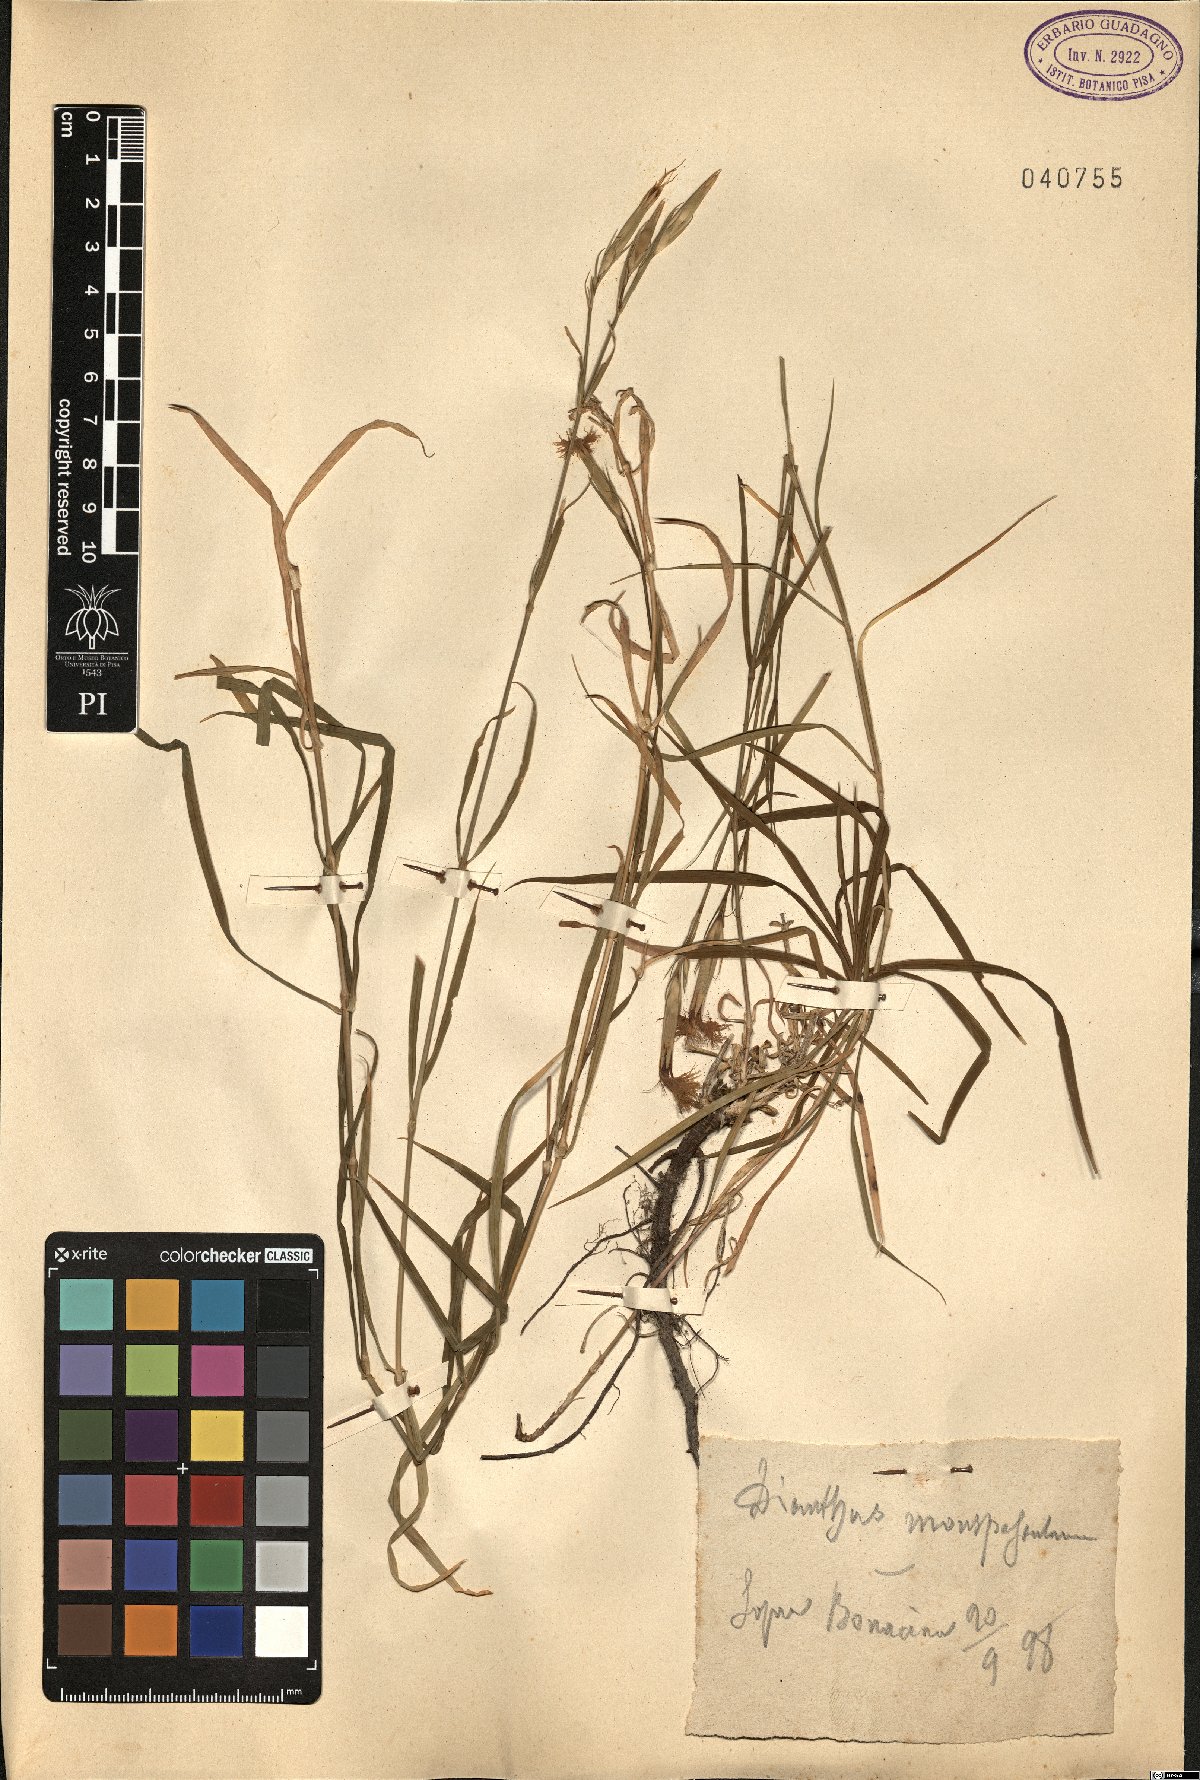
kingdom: Plantae
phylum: Tracheophyta
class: Magnoliopsida
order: Caryophyllales
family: Caryophyllaceae
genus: Dianthus
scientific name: Dianthus hyssopifolius
